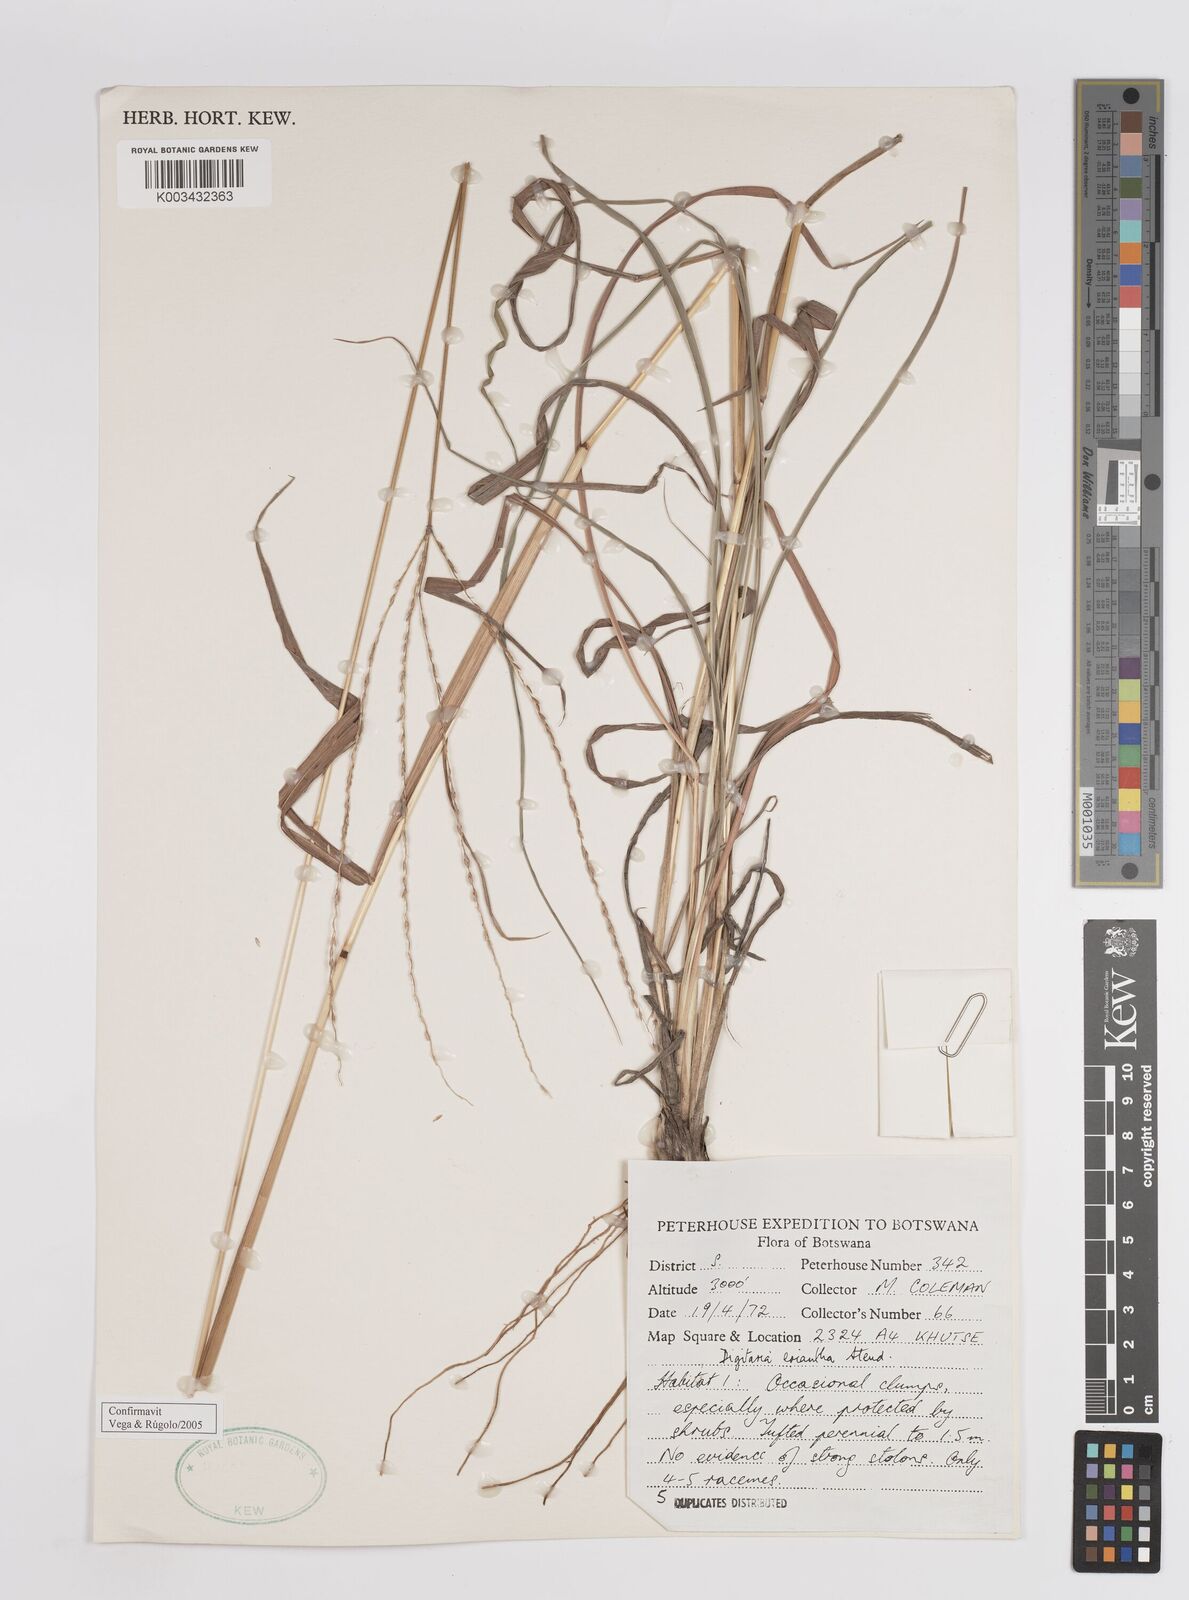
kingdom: Plantae
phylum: Tracheophyta
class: Liliopsida
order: Poales
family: Poaceae
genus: Digitaria
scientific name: Digitaria eriantha
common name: Digitgrass
